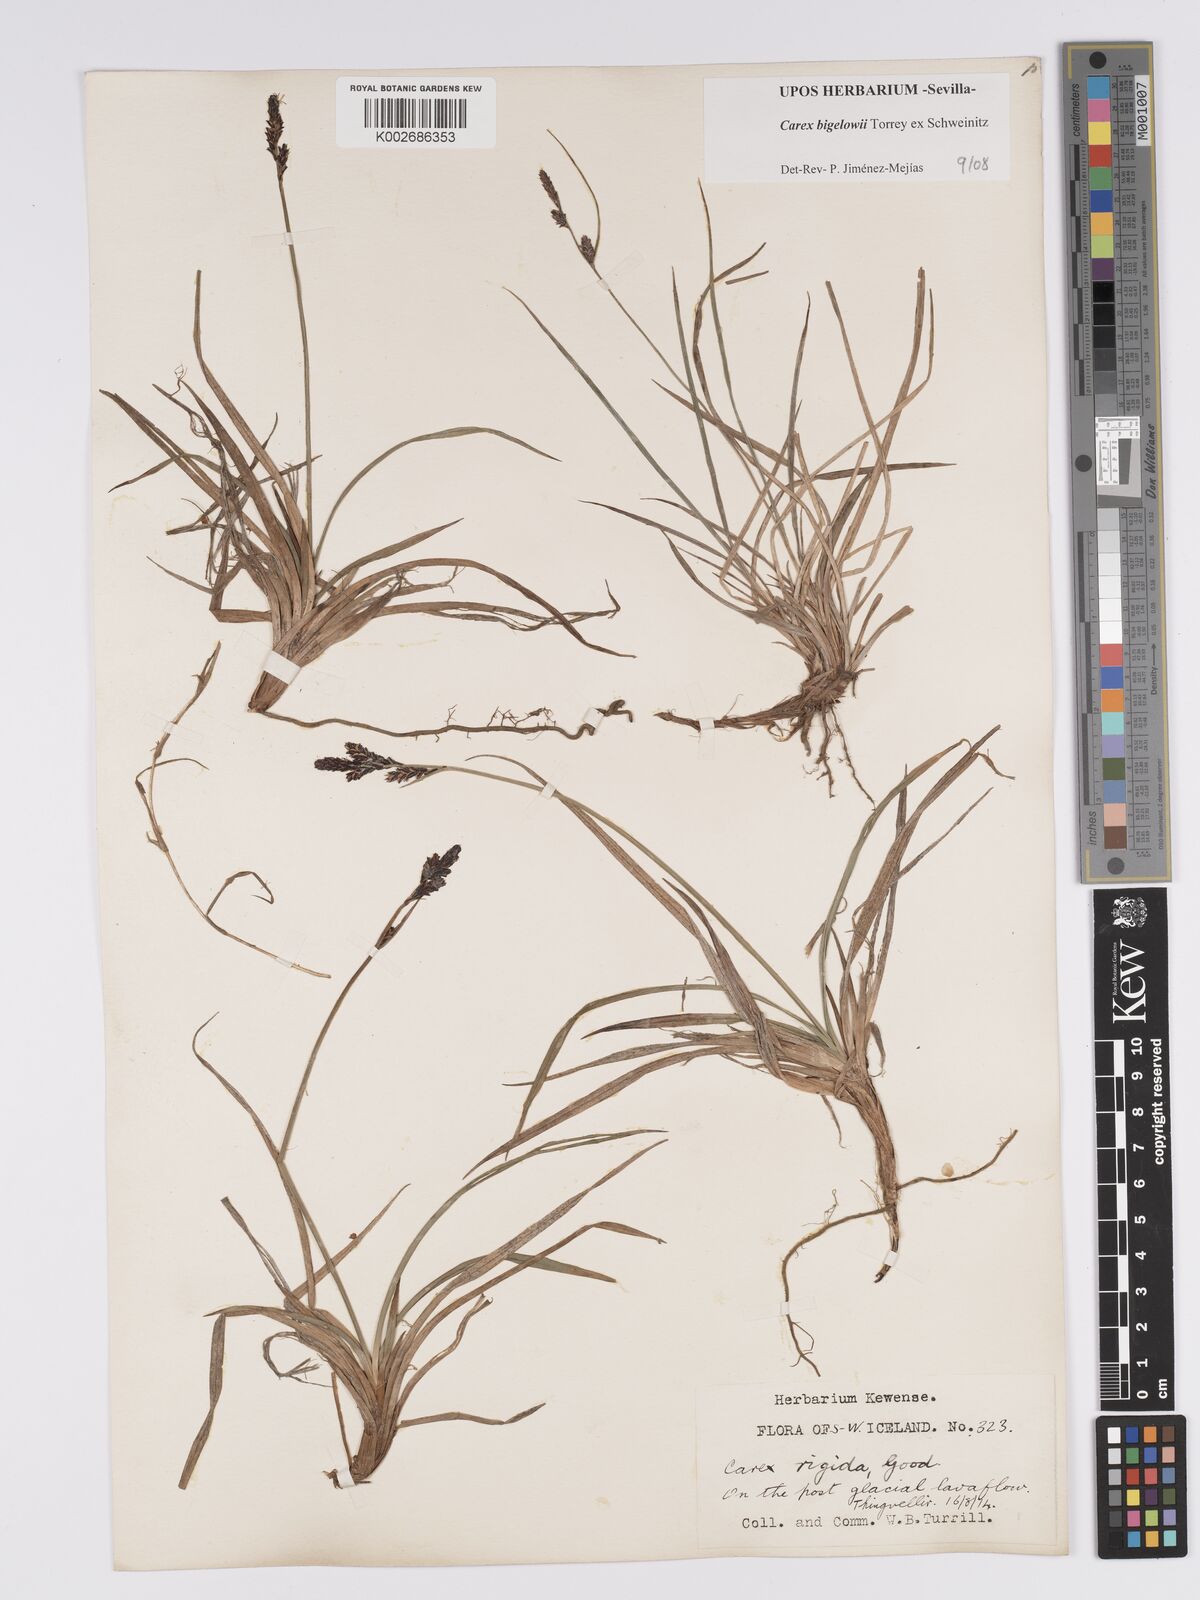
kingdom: Plantae
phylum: Tracheophyta
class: Liliopsida
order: Poales
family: Cyperaceae
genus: Carex
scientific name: Carex bigelowii
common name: Stiff sedge
